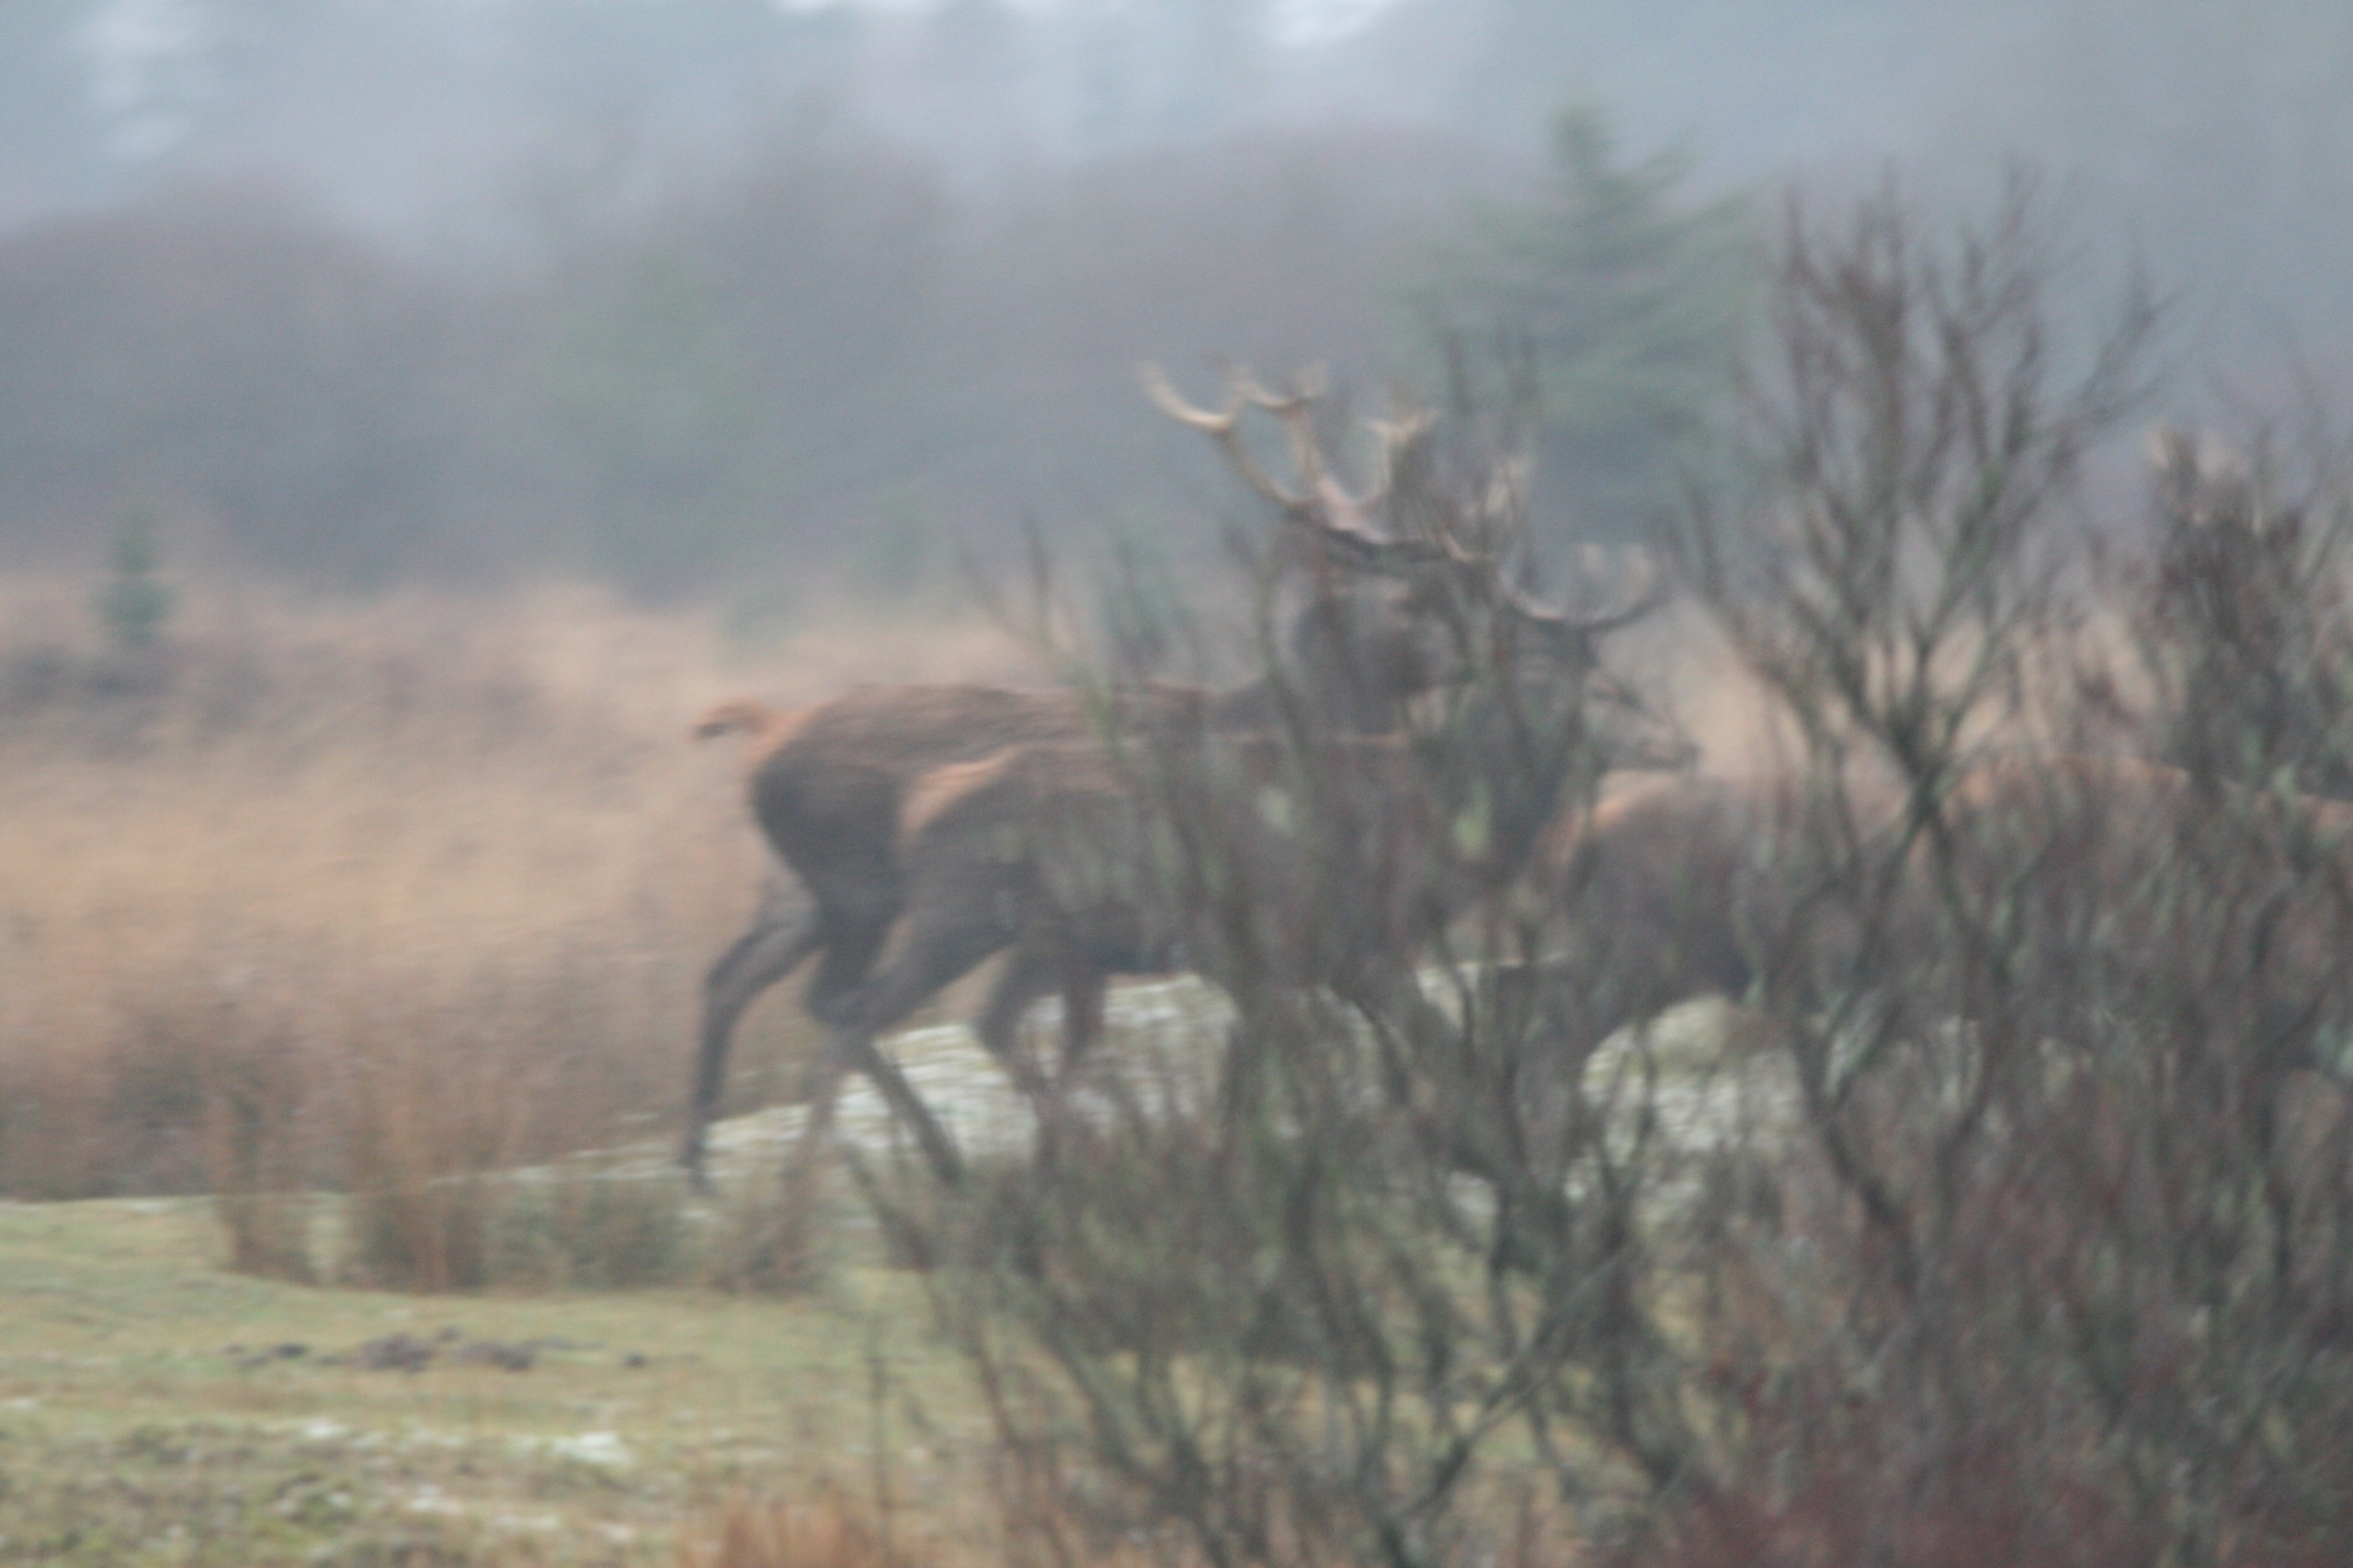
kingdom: Animalia
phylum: Chordata
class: Mammalia
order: Artiodactyla
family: Cervidae
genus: Cervus
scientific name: Cervus elaphus
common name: Krondyr
